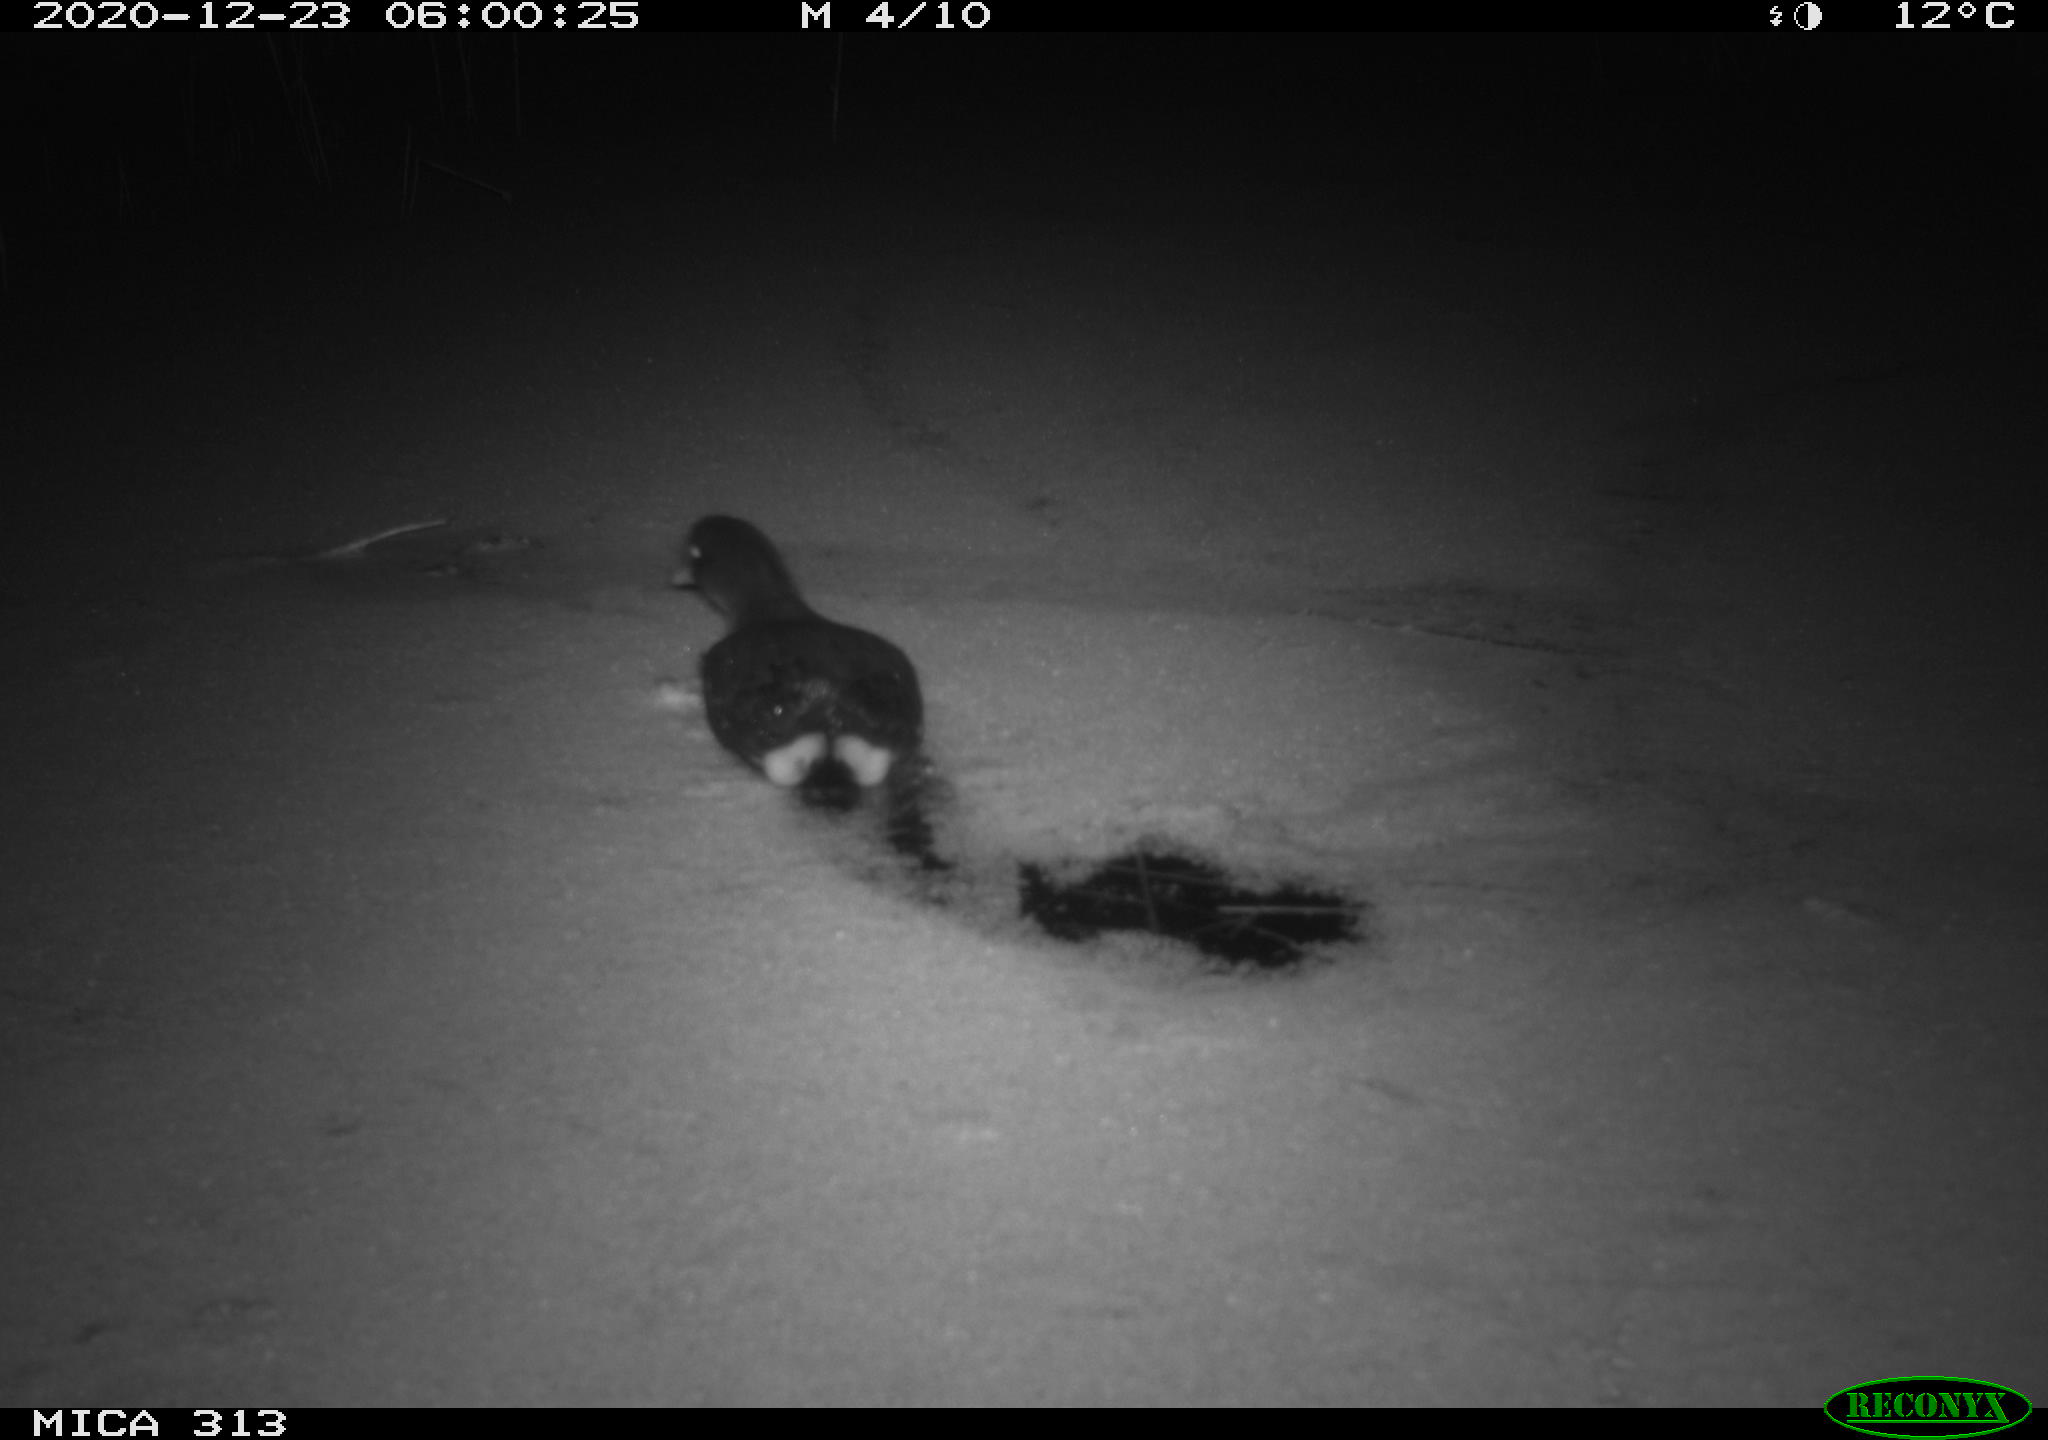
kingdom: Animalia
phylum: Chordata
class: Aves
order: Gruiformes
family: Rallidae
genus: Gallinula
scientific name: Gallinula chloropus
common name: Common moorhen
